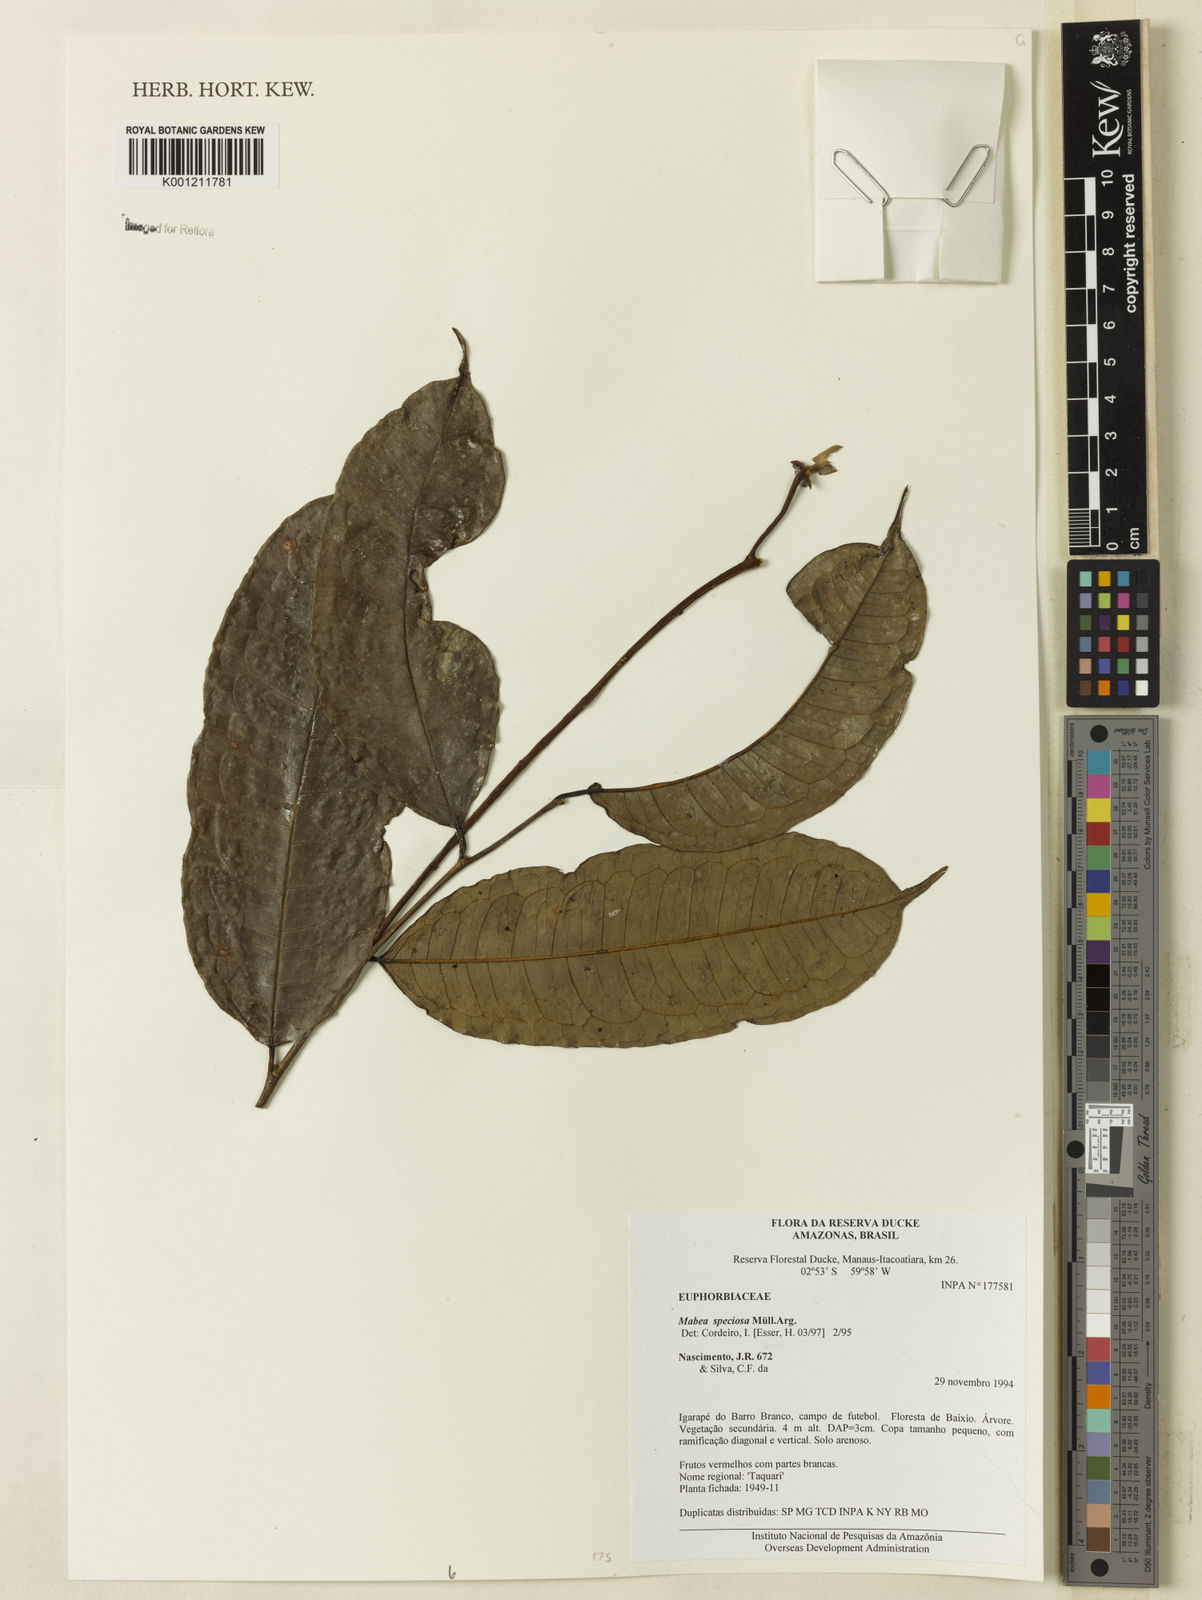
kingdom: Plantae
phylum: Tracheophyta
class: Magnoliopsida
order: Malpighiales
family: Euphorbiaceae
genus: Mabea
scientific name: Mabea
